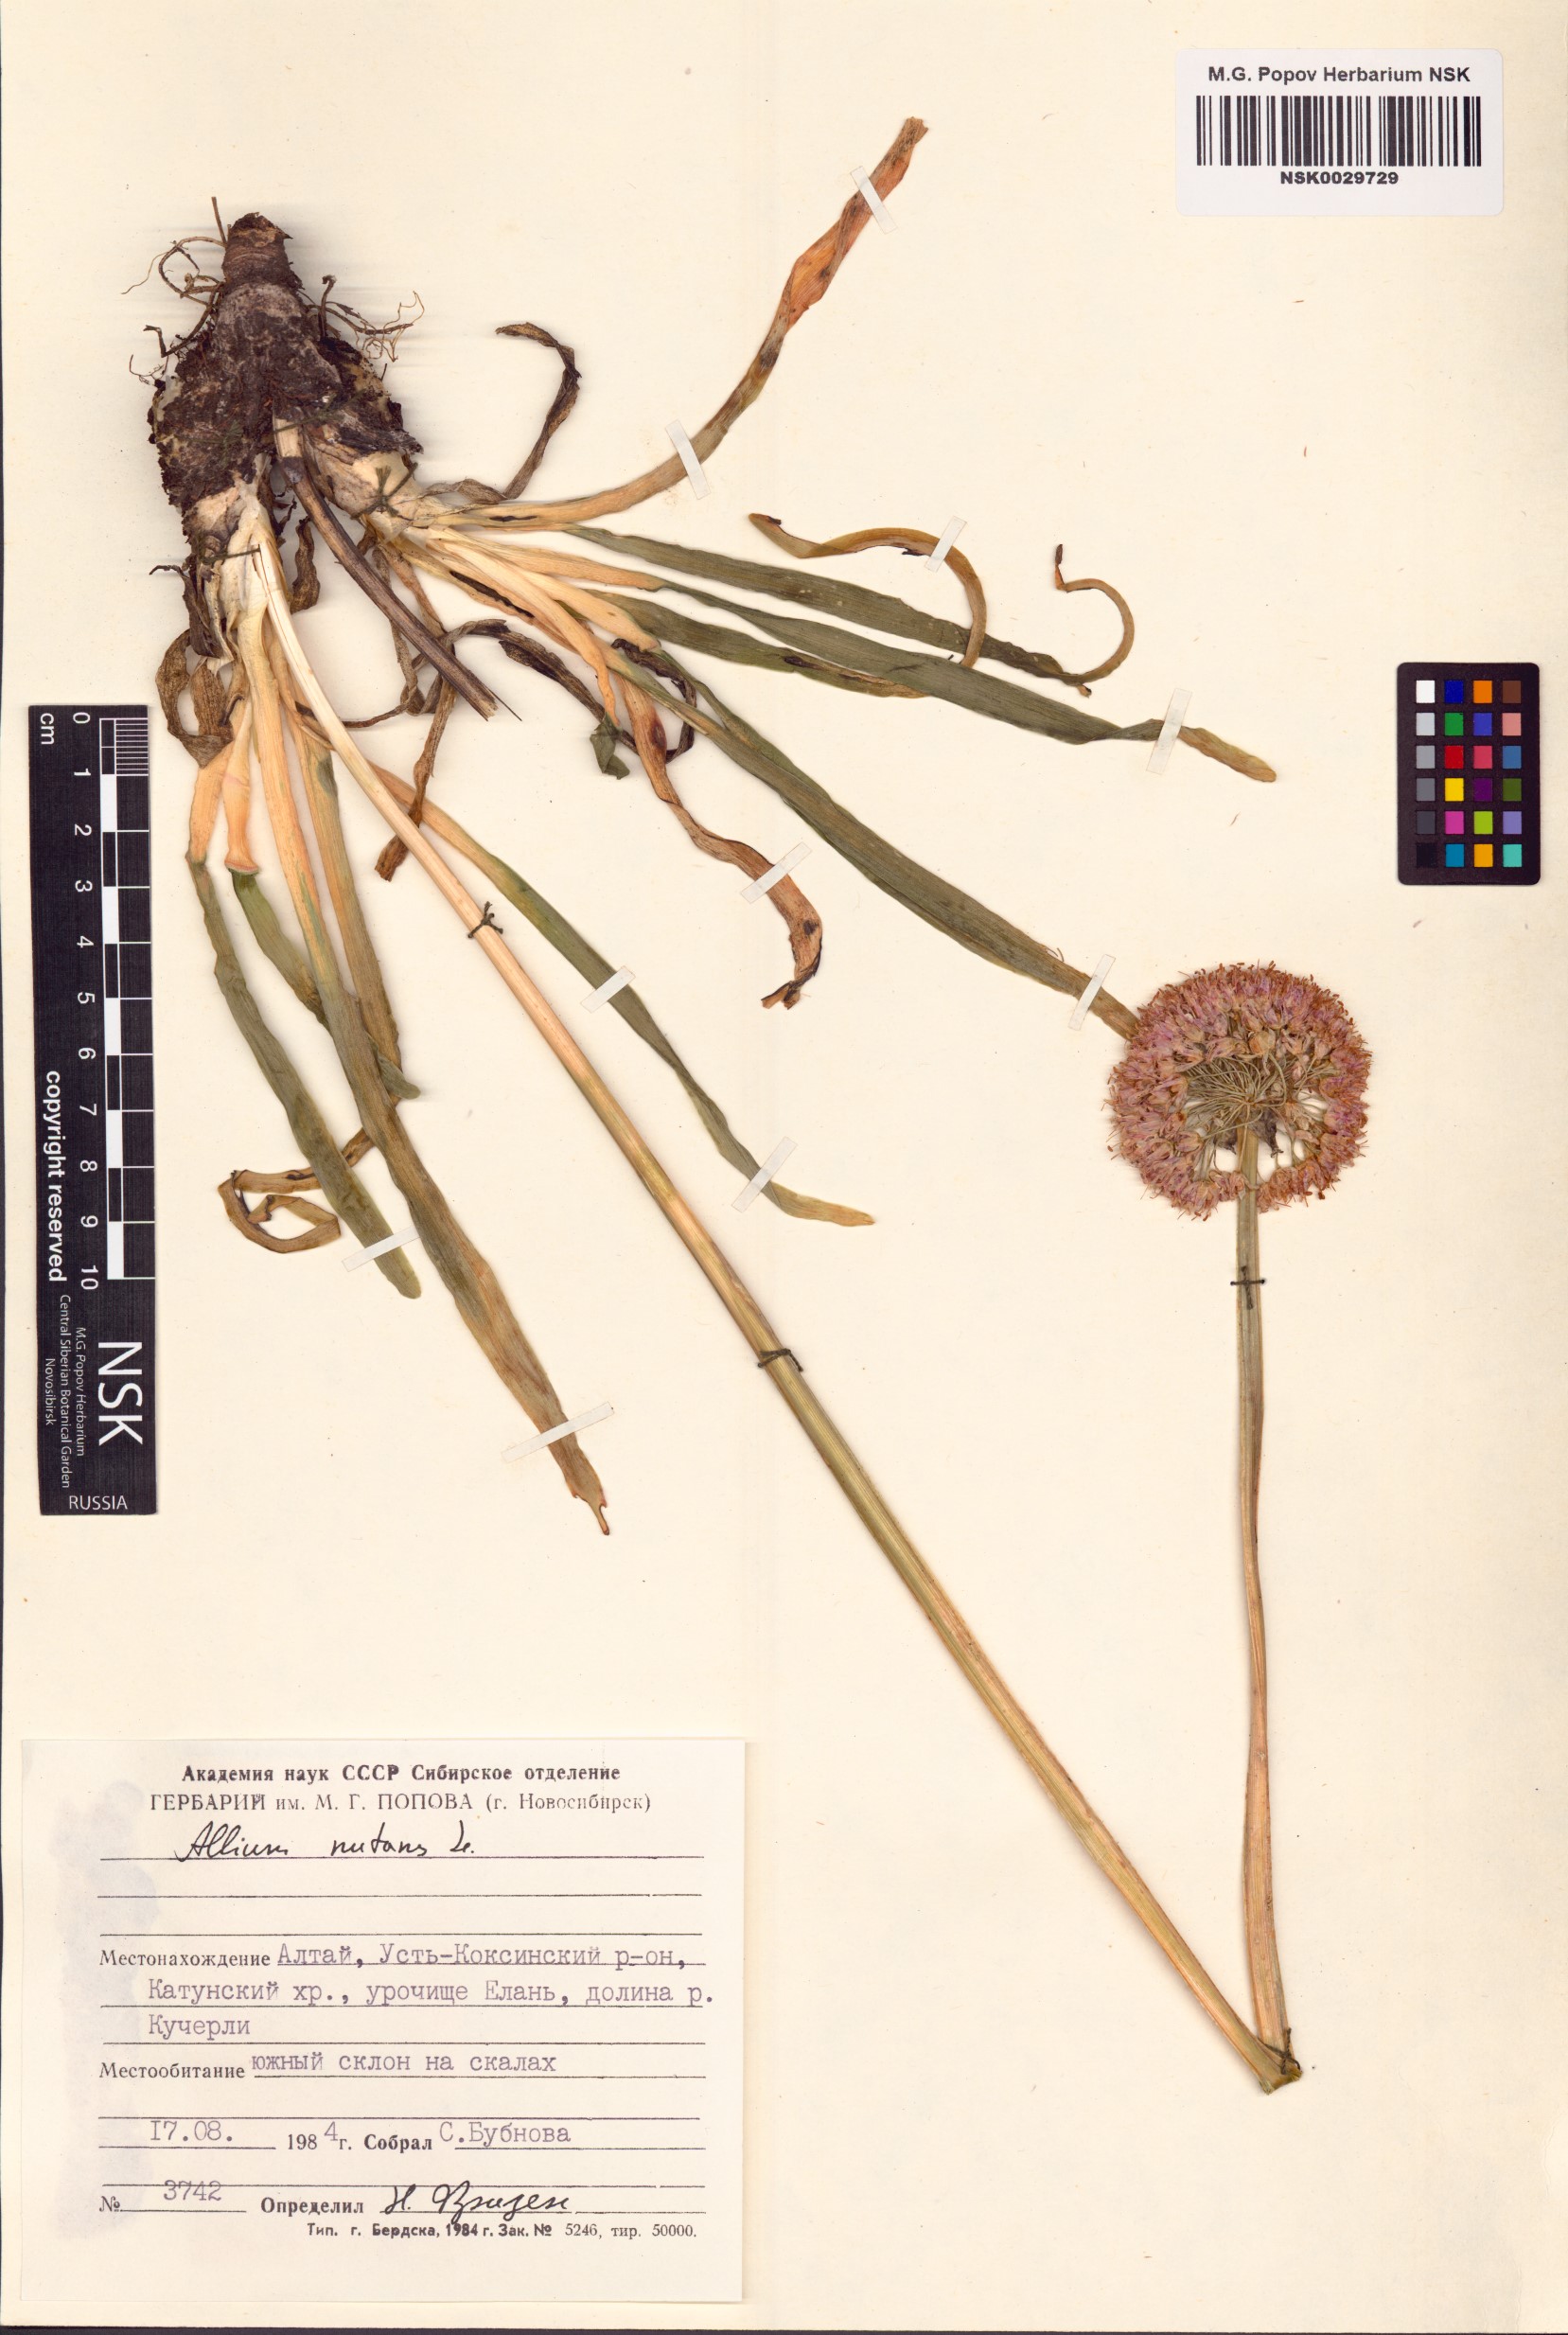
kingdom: Plantae
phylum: Tracheophyta
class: Liliopsida
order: Asparagales
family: Amaryllidaceae
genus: Allium
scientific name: Allium nutans
